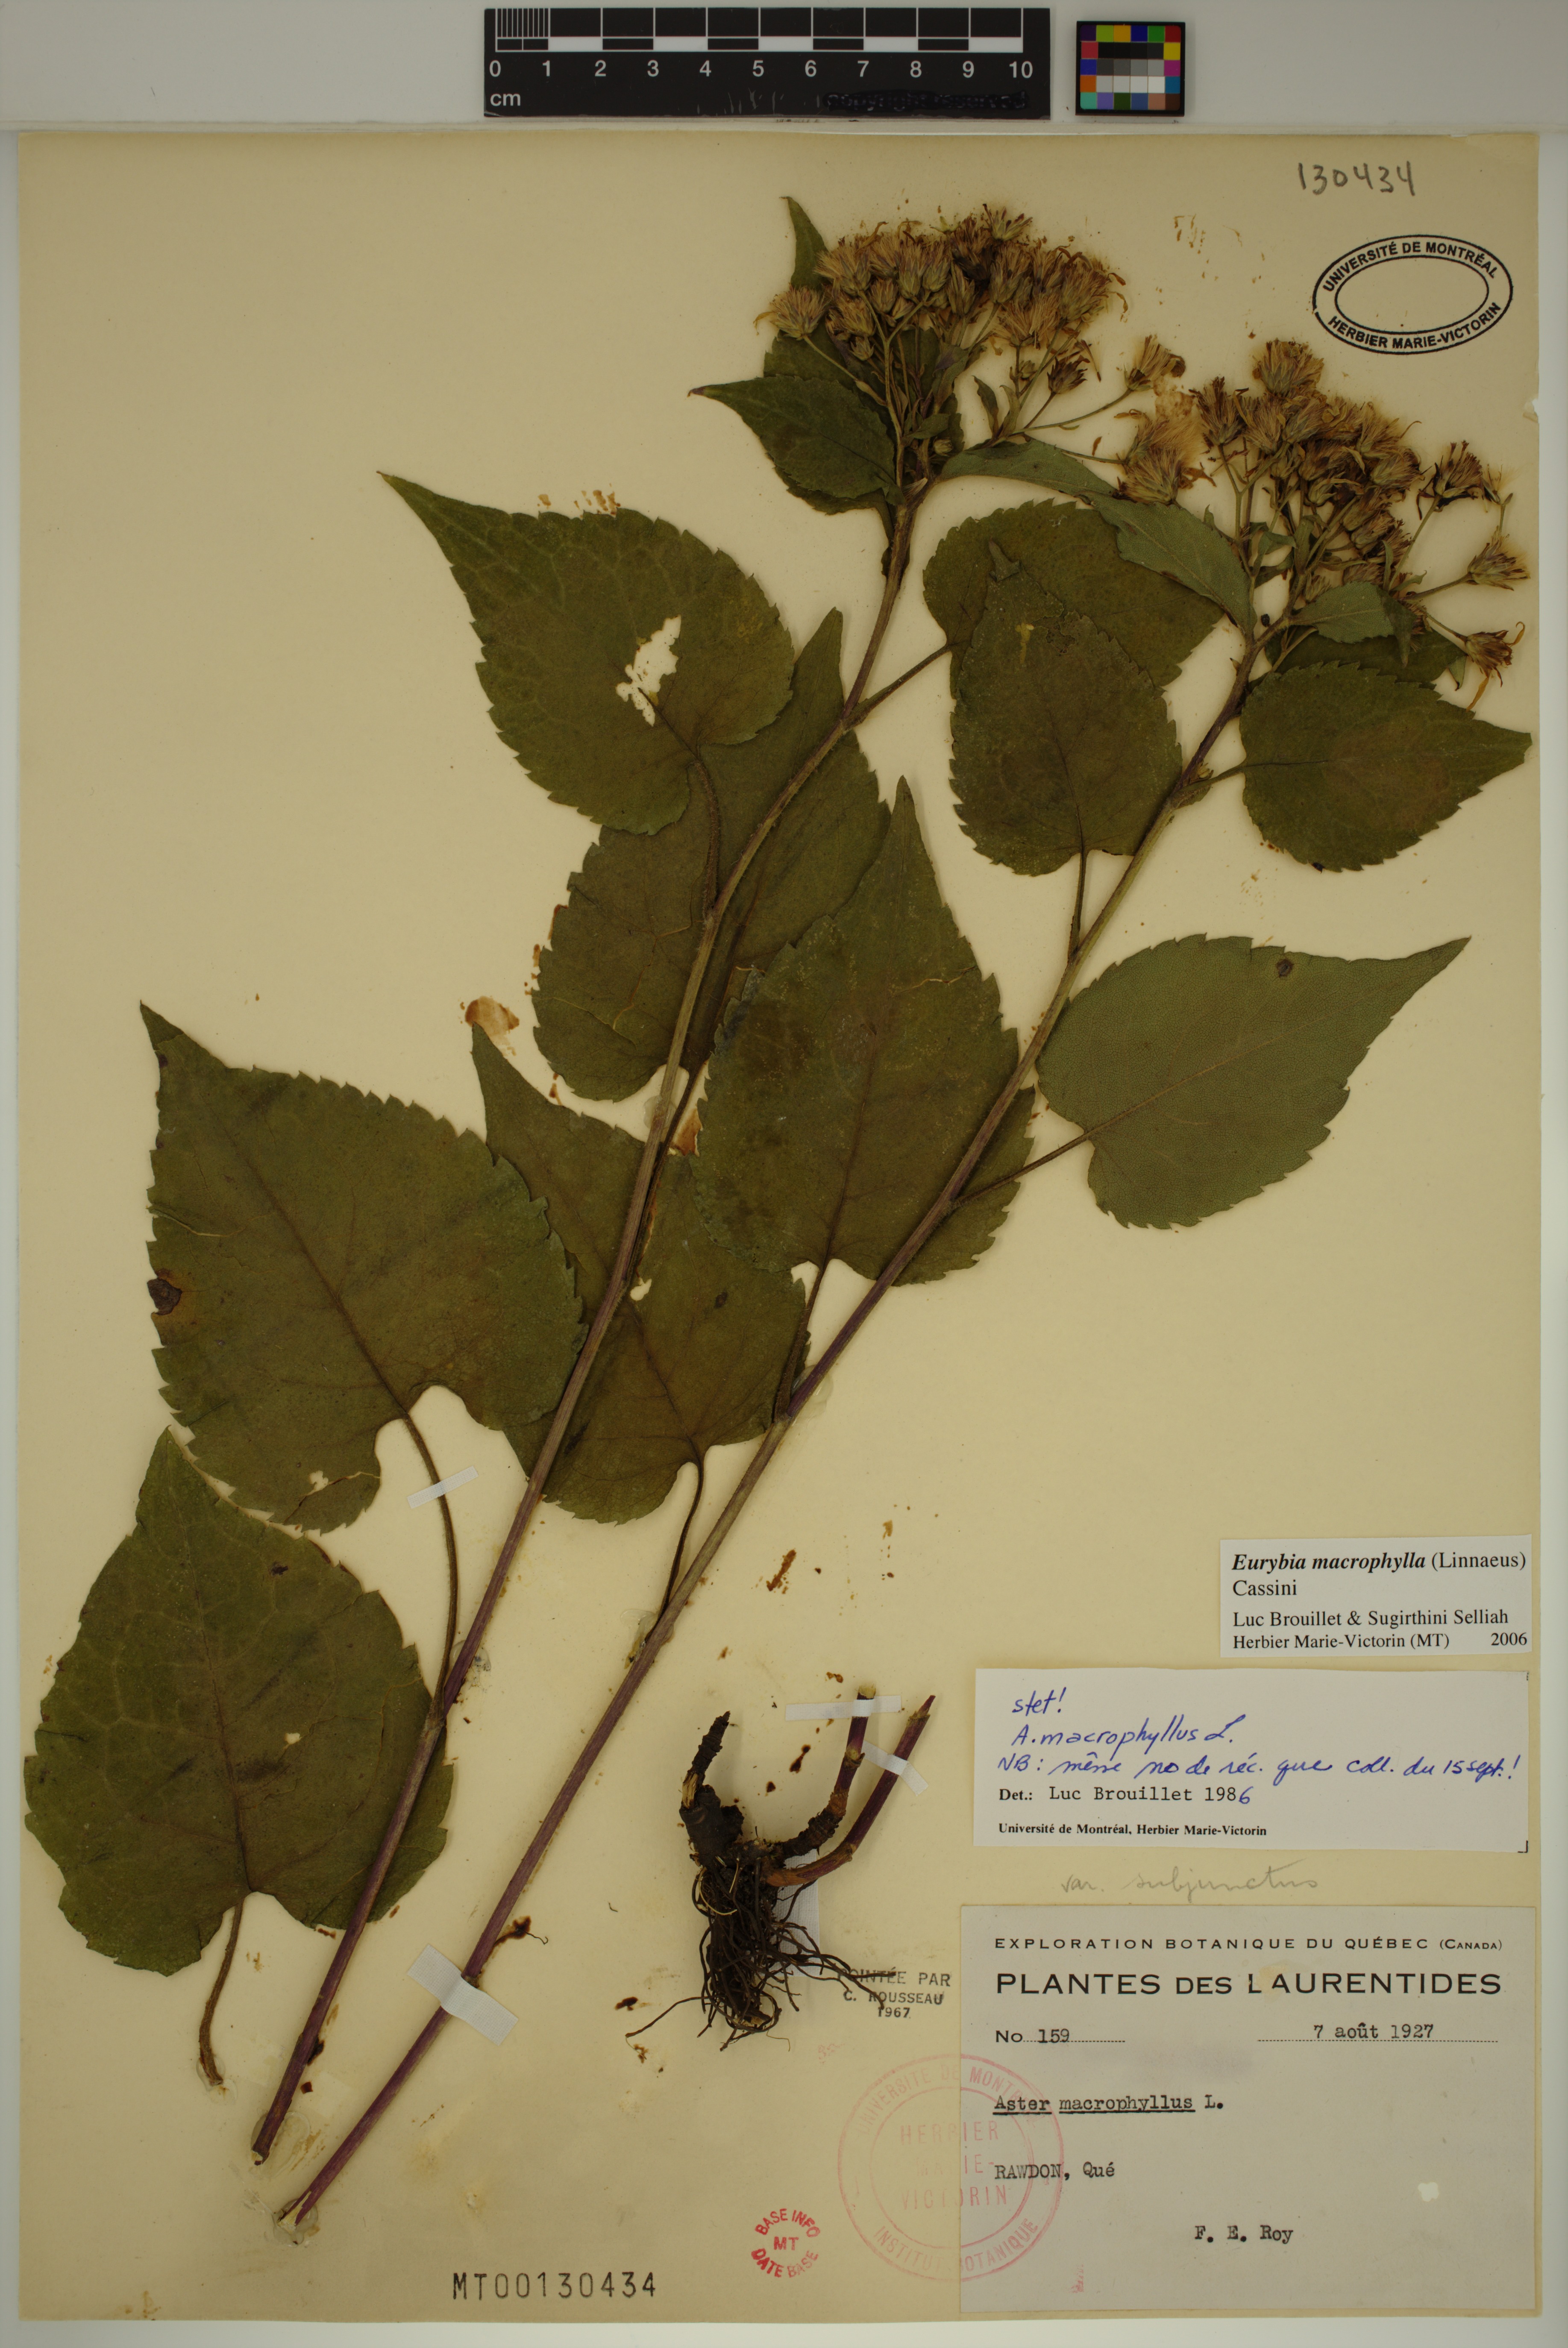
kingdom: Plantae
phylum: Tracheophyta
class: Magnoliopsida
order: Asterales
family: Asteraceae
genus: Eurybia
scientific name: Eurybia macrophylla
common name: Big-leaved aster
